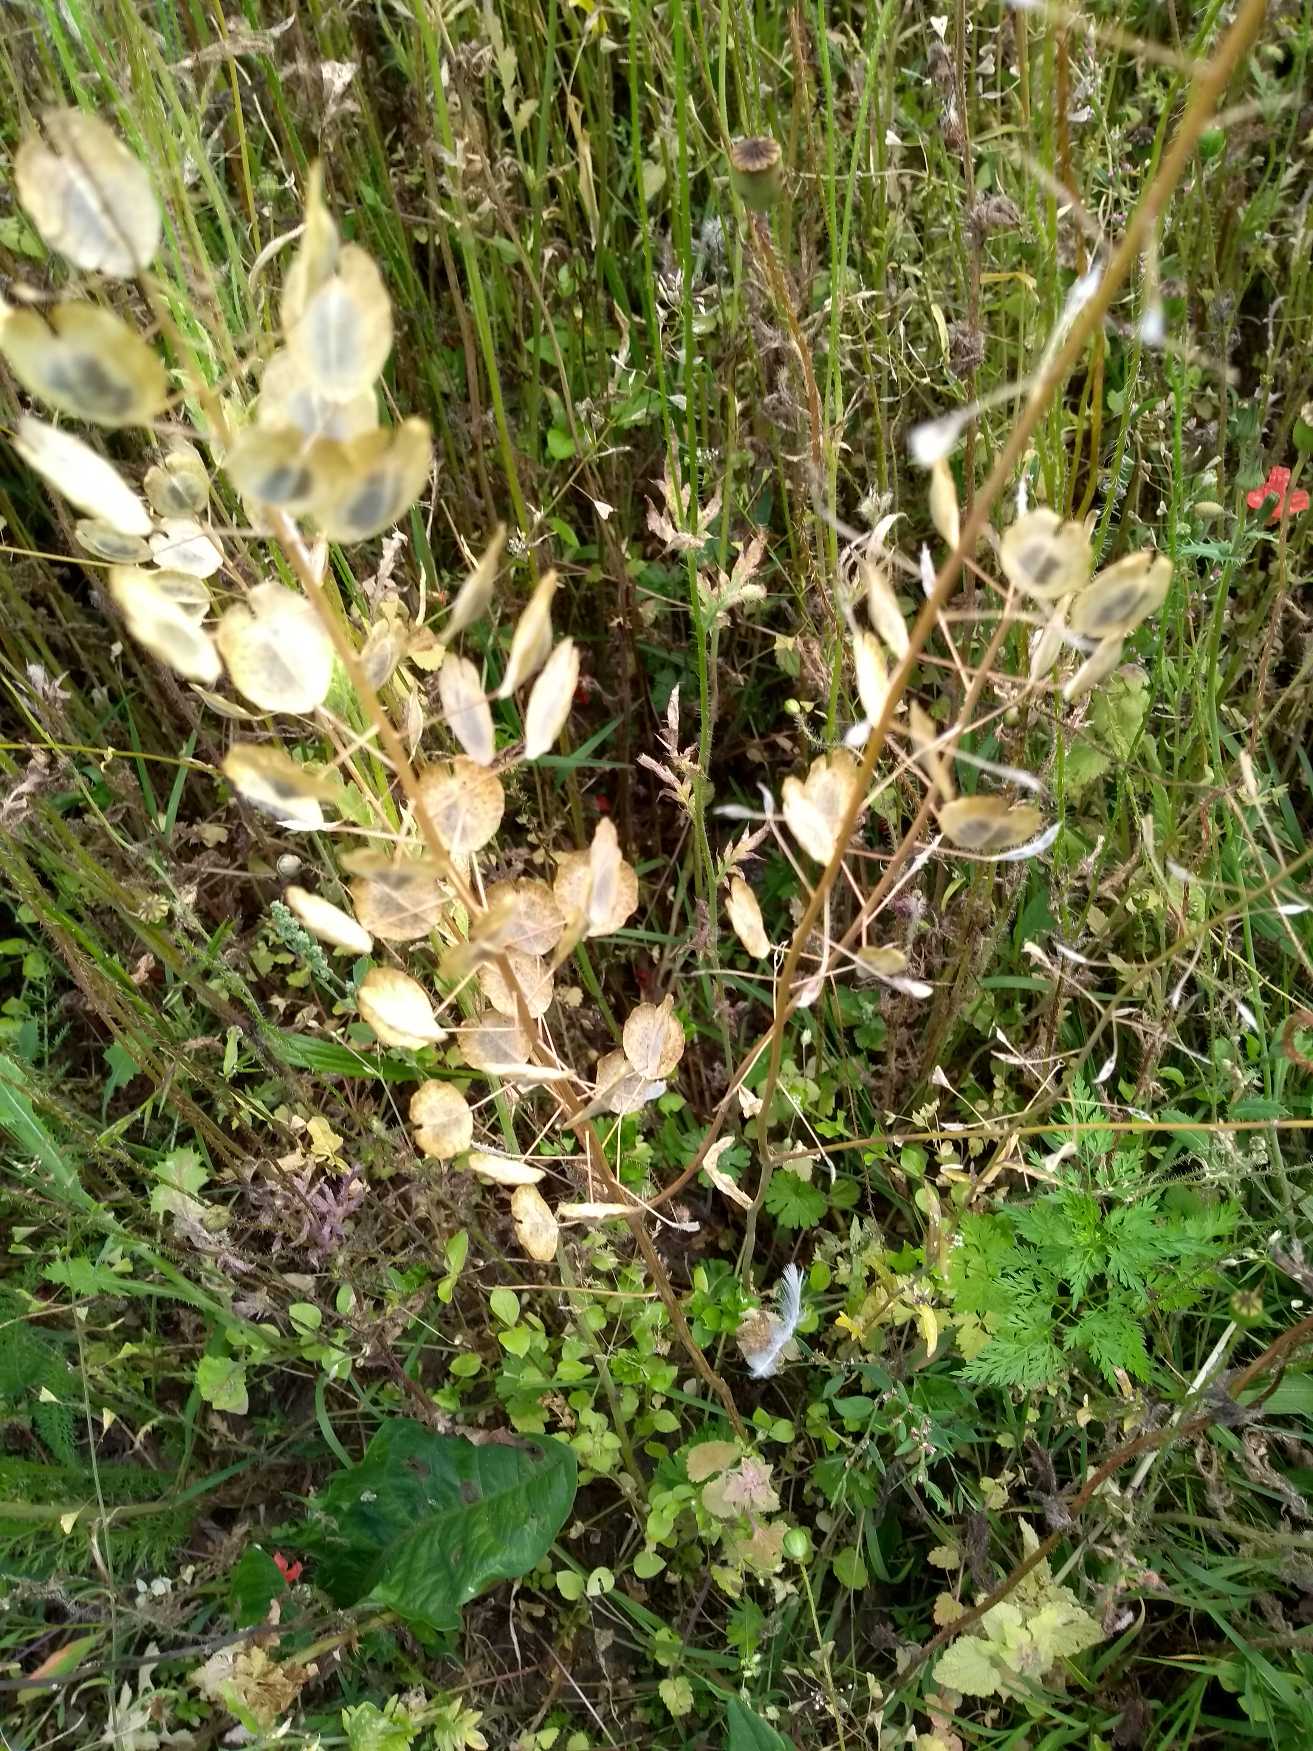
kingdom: Plantae
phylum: Tracheophyta
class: Magnoliopsida
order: Brassicales
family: Brassicaceae
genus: Thlaspi
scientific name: Thlaspi arvense
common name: Almindelig pengeurt
